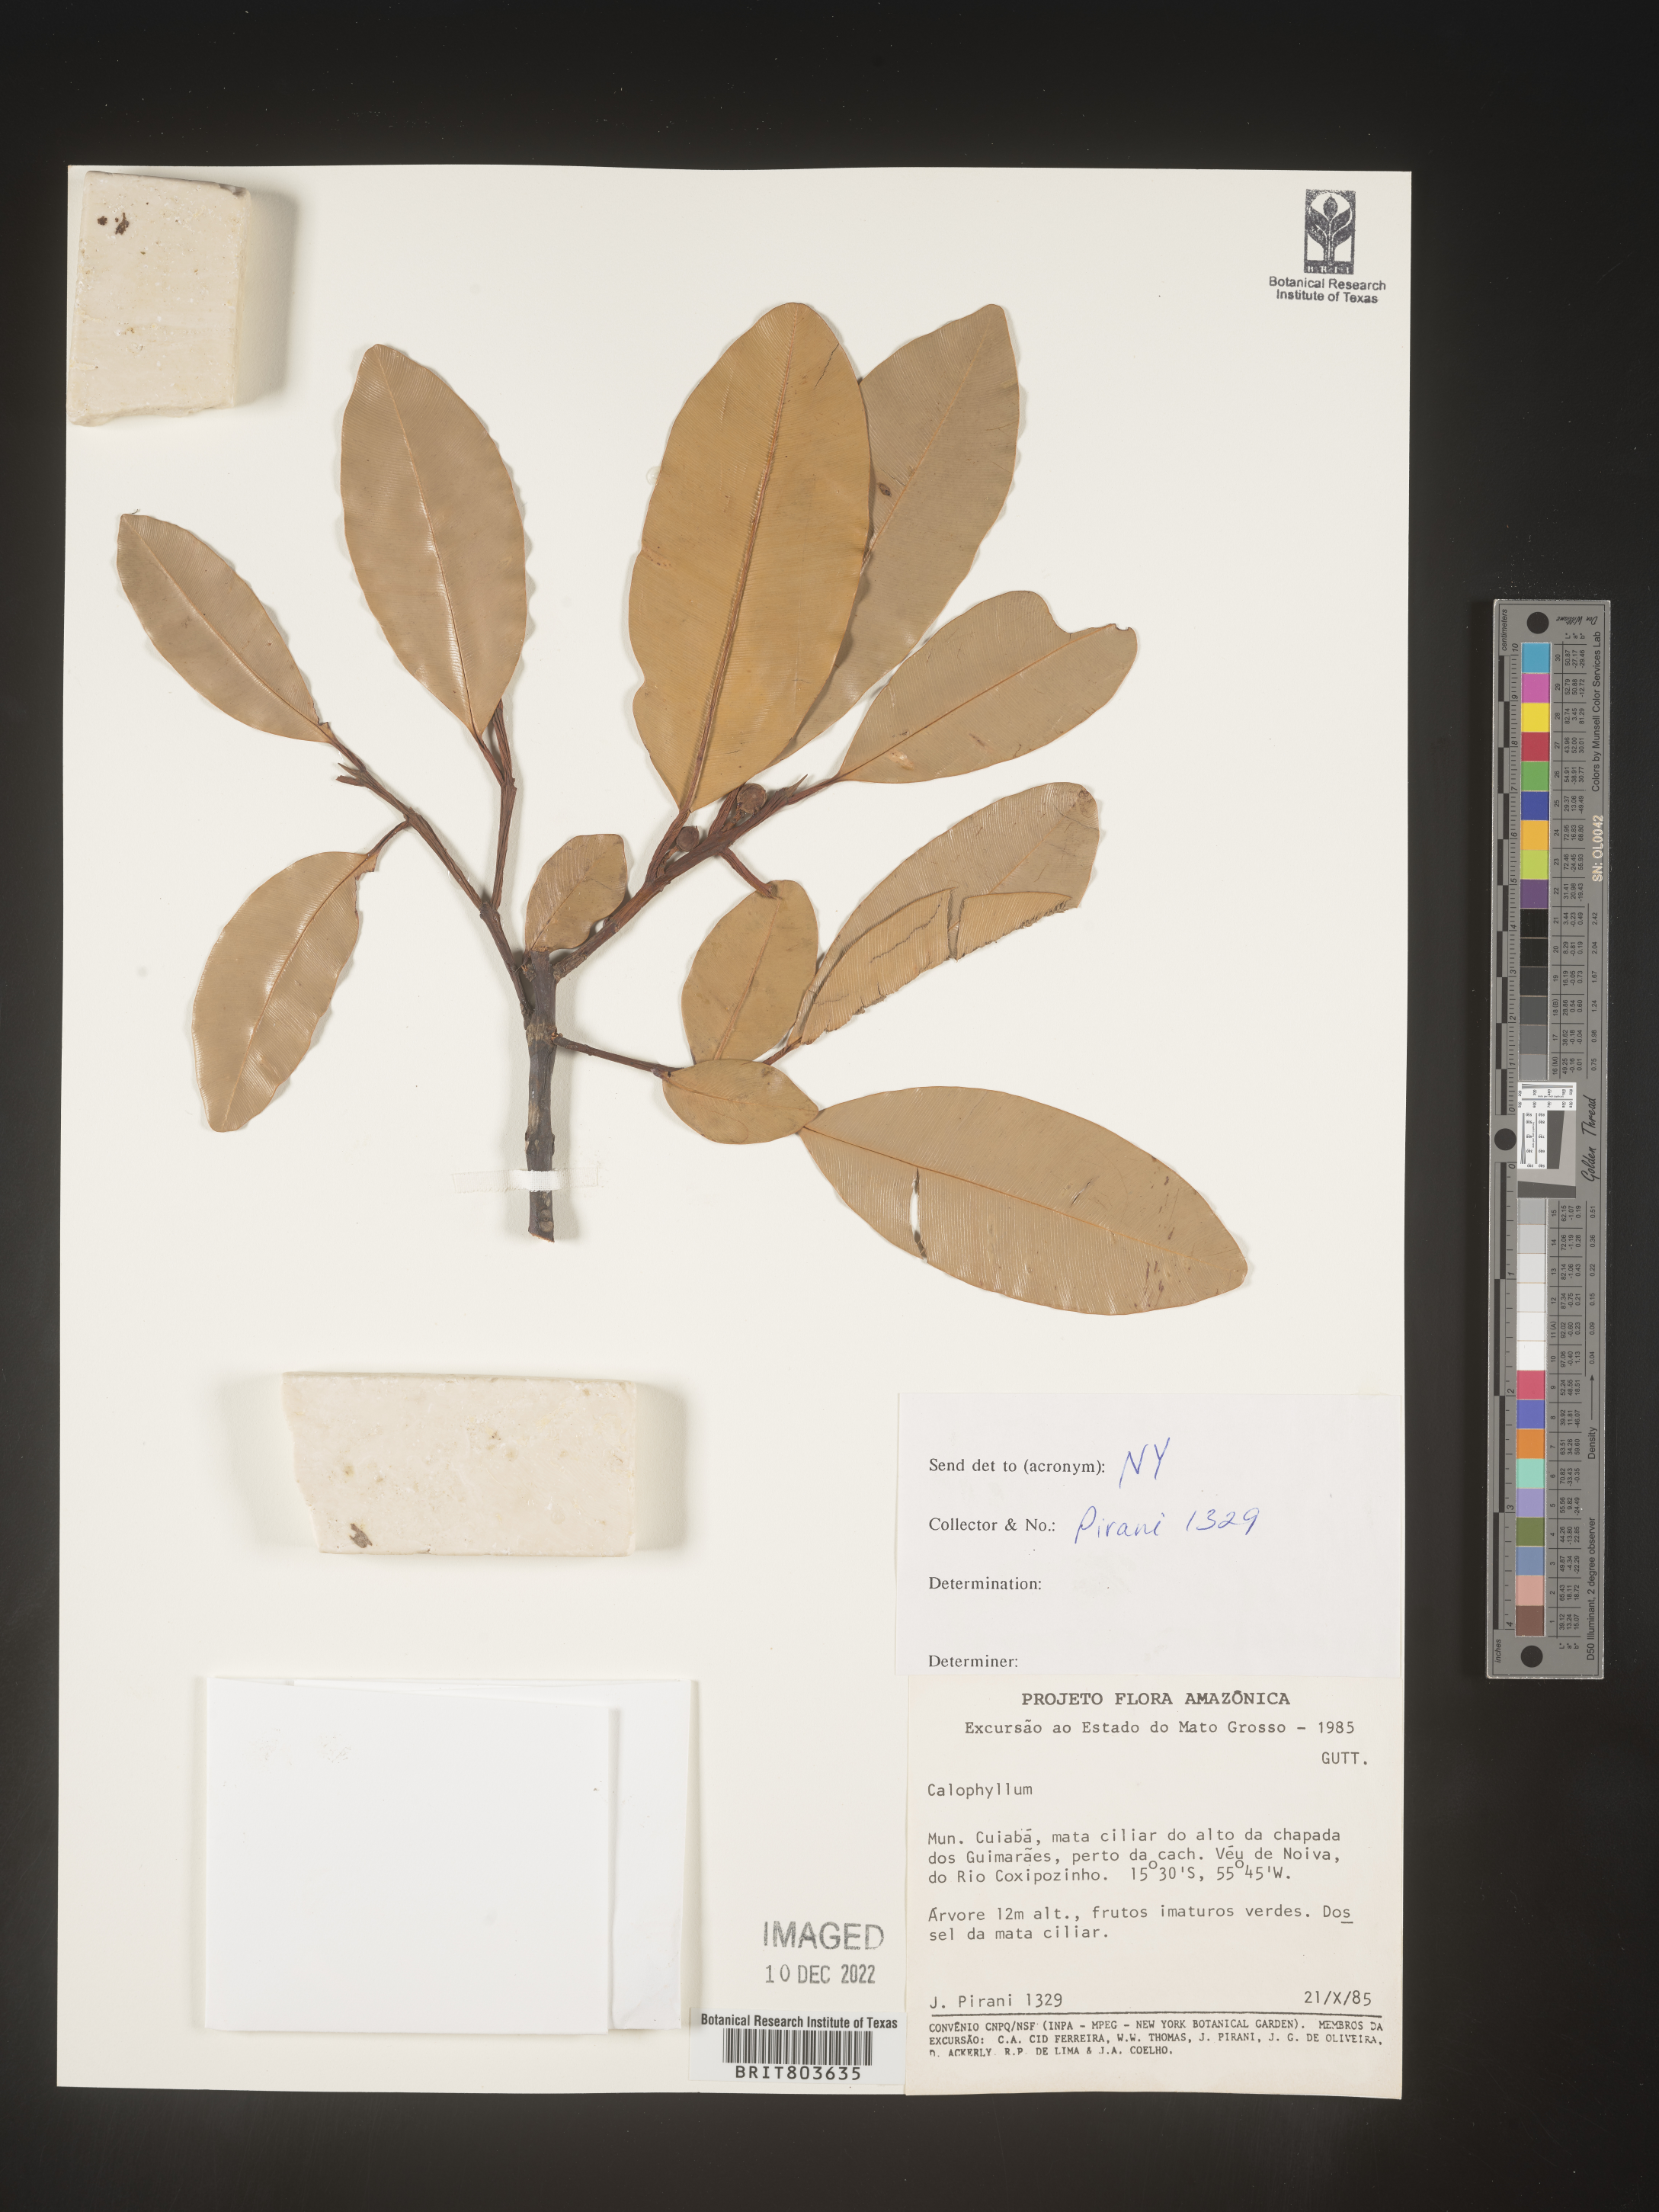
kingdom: Plantae
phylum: Tracheophyta
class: Magnoliopsida
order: Malpighiales
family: Clusiaceae
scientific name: Clusiaceae
